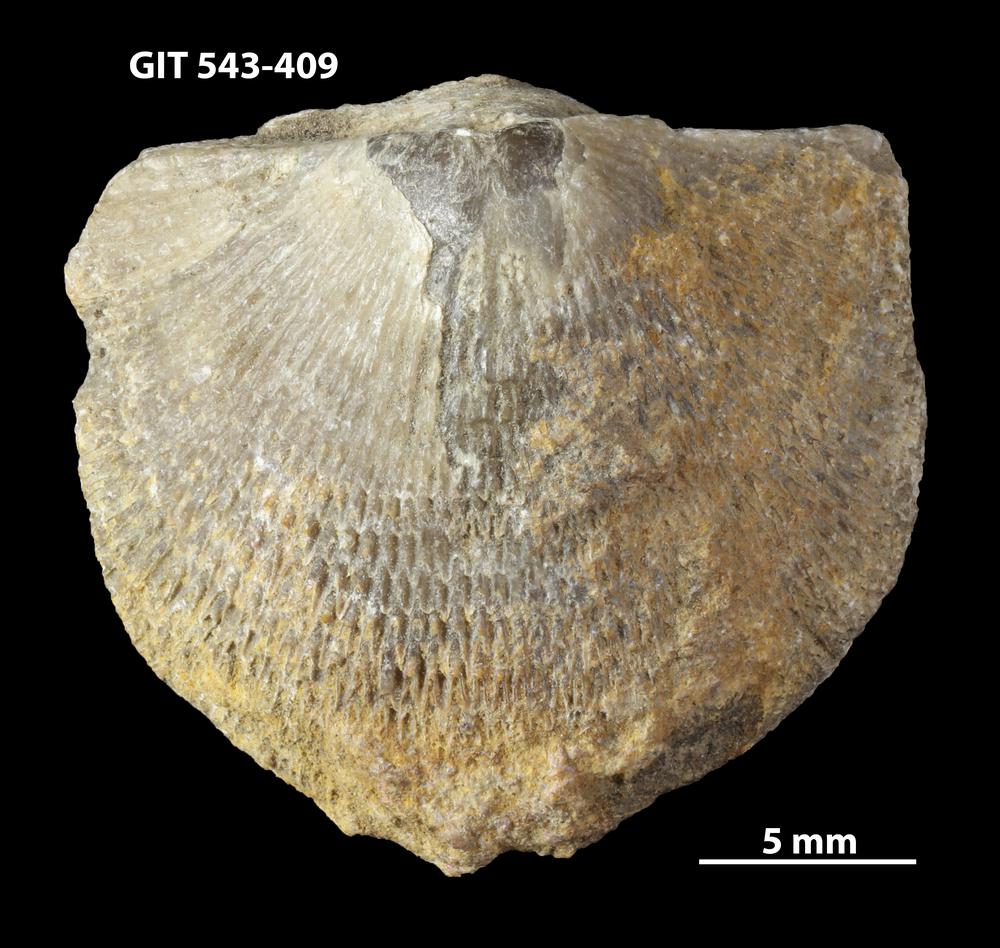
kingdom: Animalia
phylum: Brachiopoda
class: Rhynchonellata
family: Clitambonitidae
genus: Clitambonites
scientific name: Clitambonites squamatus
